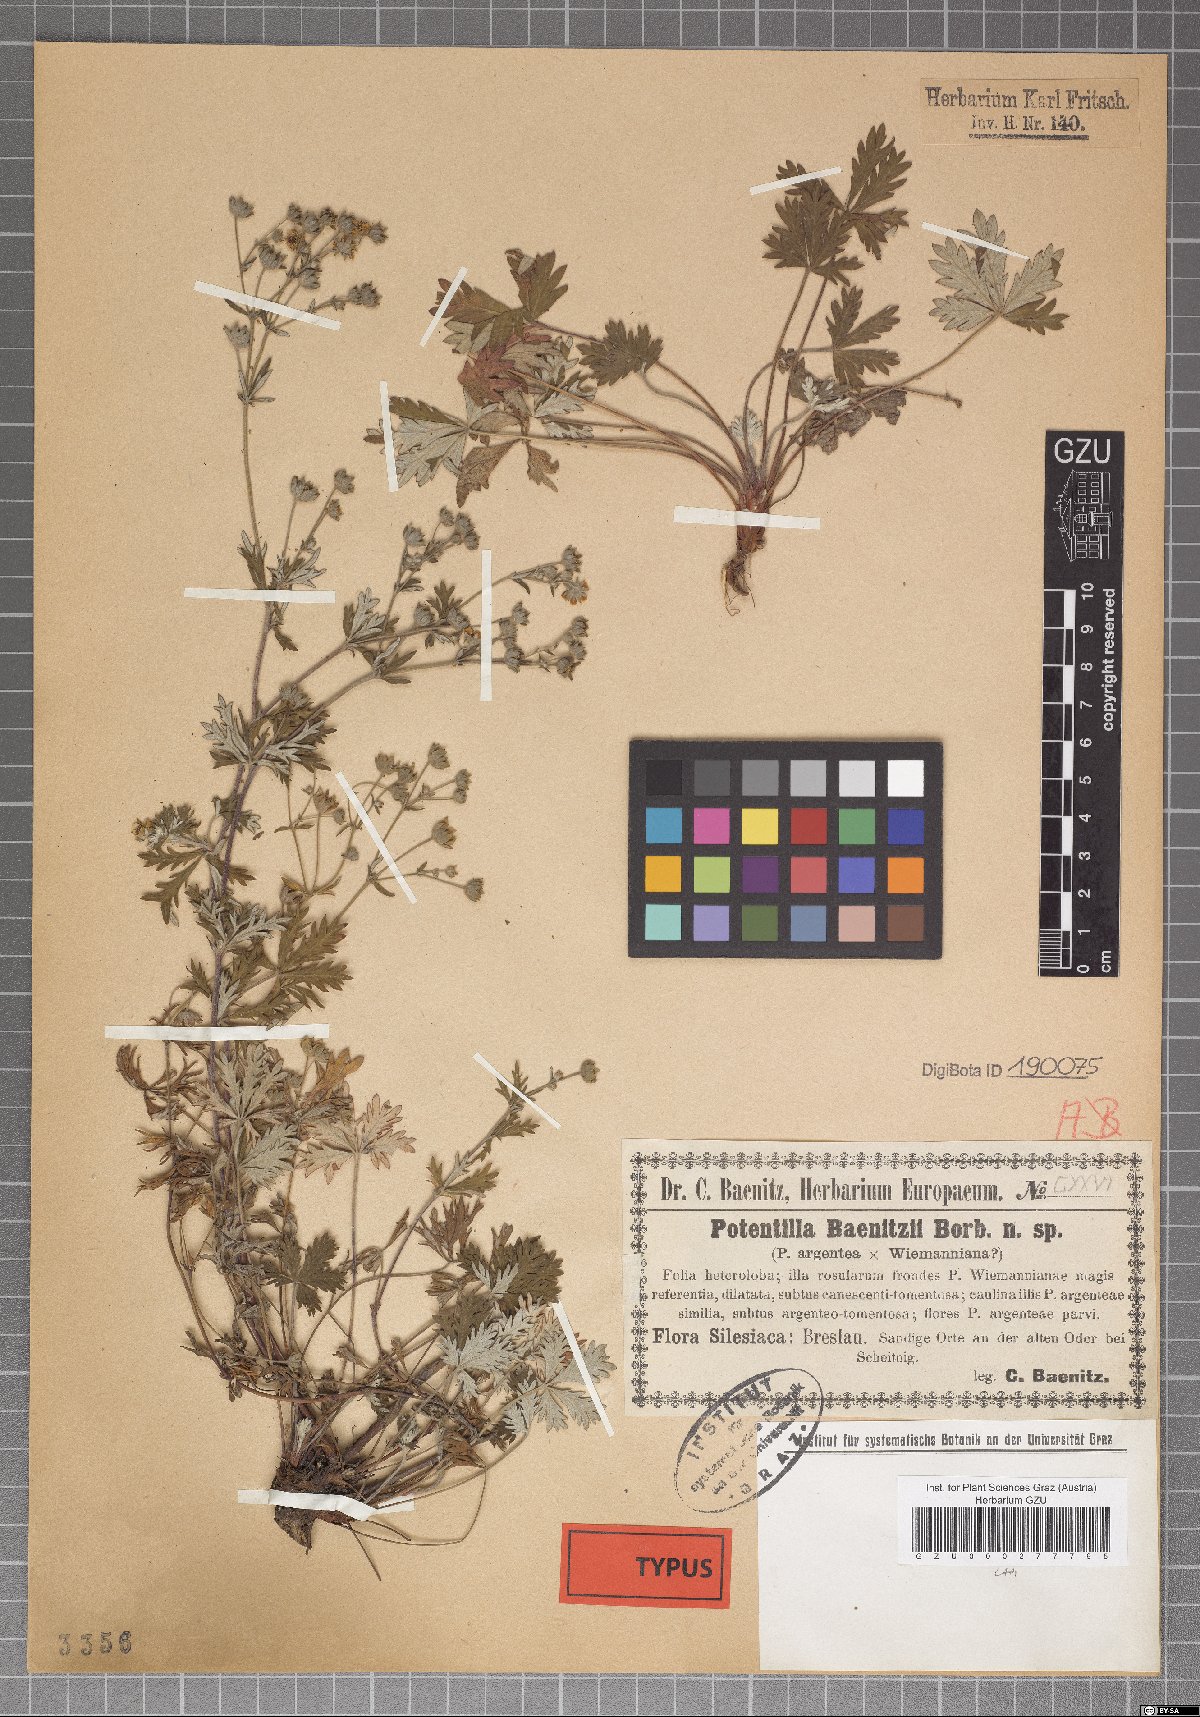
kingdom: Plantae
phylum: Tracheophyta
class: Magnoliopsida
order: Rosales
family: Rosaceae
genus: Potentilla
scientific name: Potentilla argentea
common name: Hoary cinquefoil
